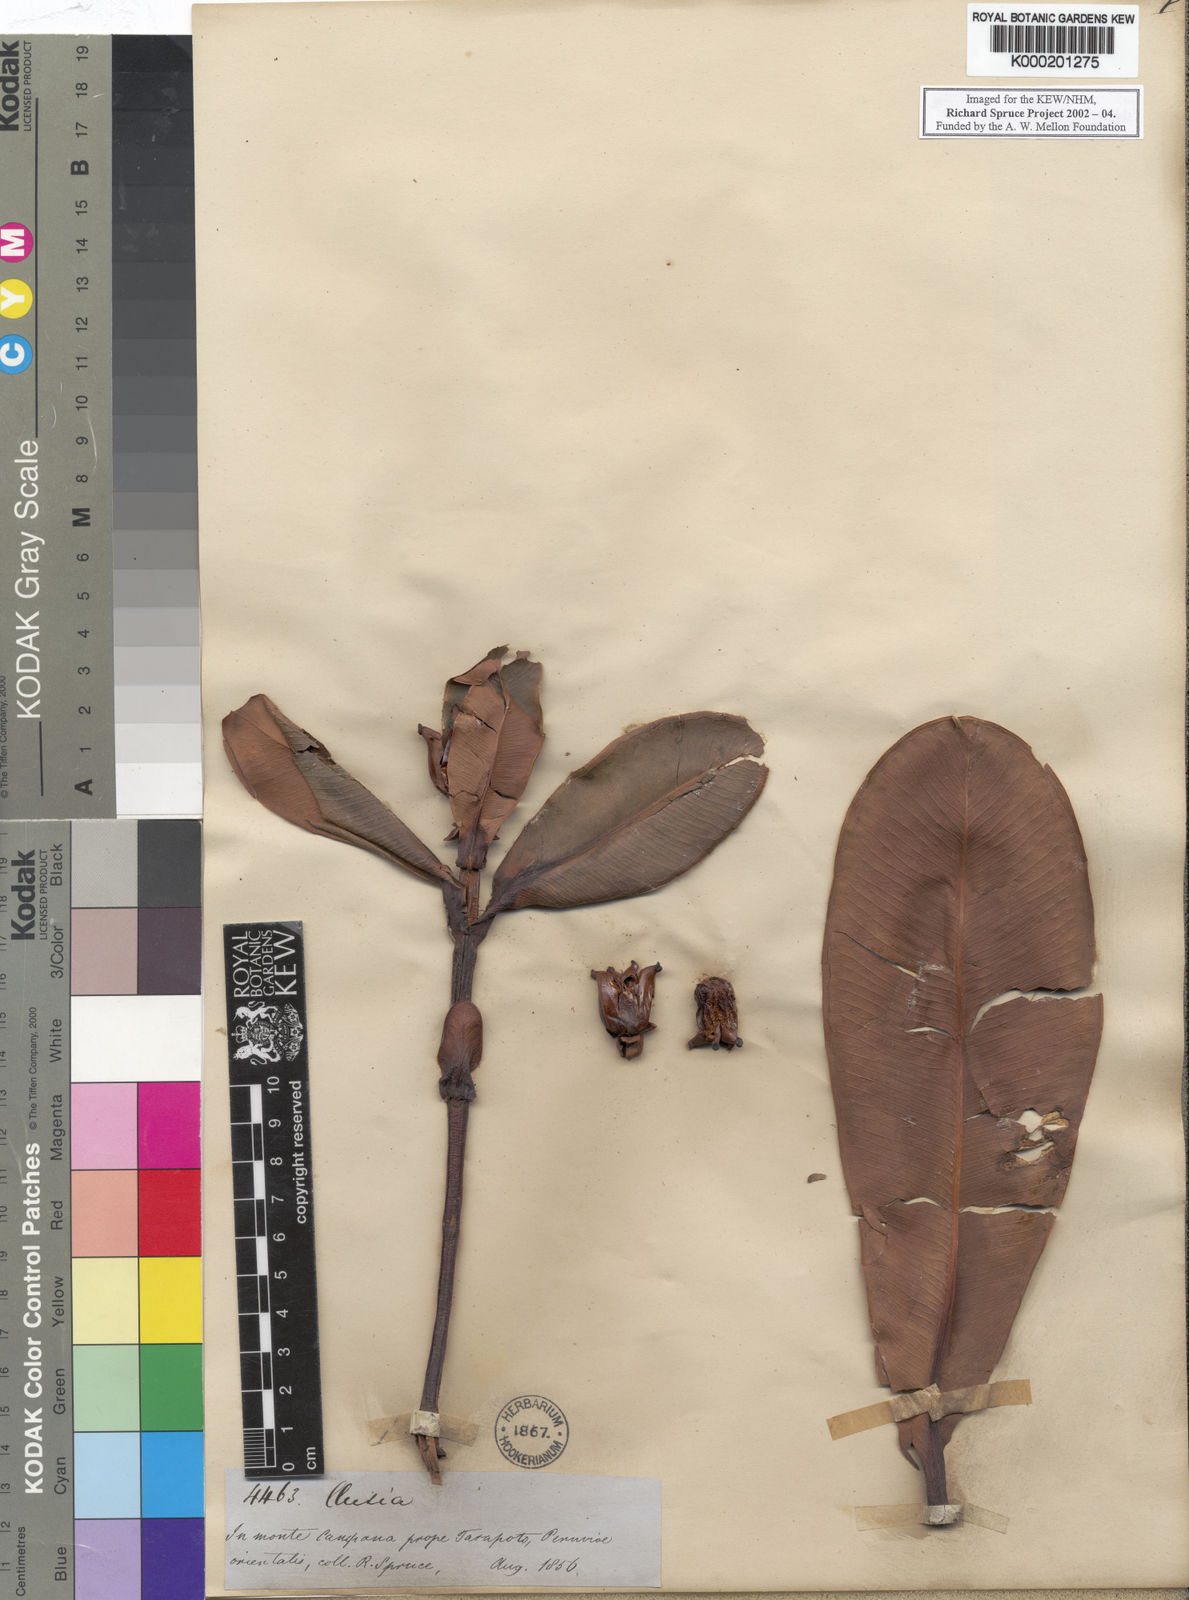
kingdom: Plantae
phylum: Tracheophyta
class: Magnoliopsida
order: Malpighiales
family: Clusiaceae
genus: Clusia
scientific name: Clusia
